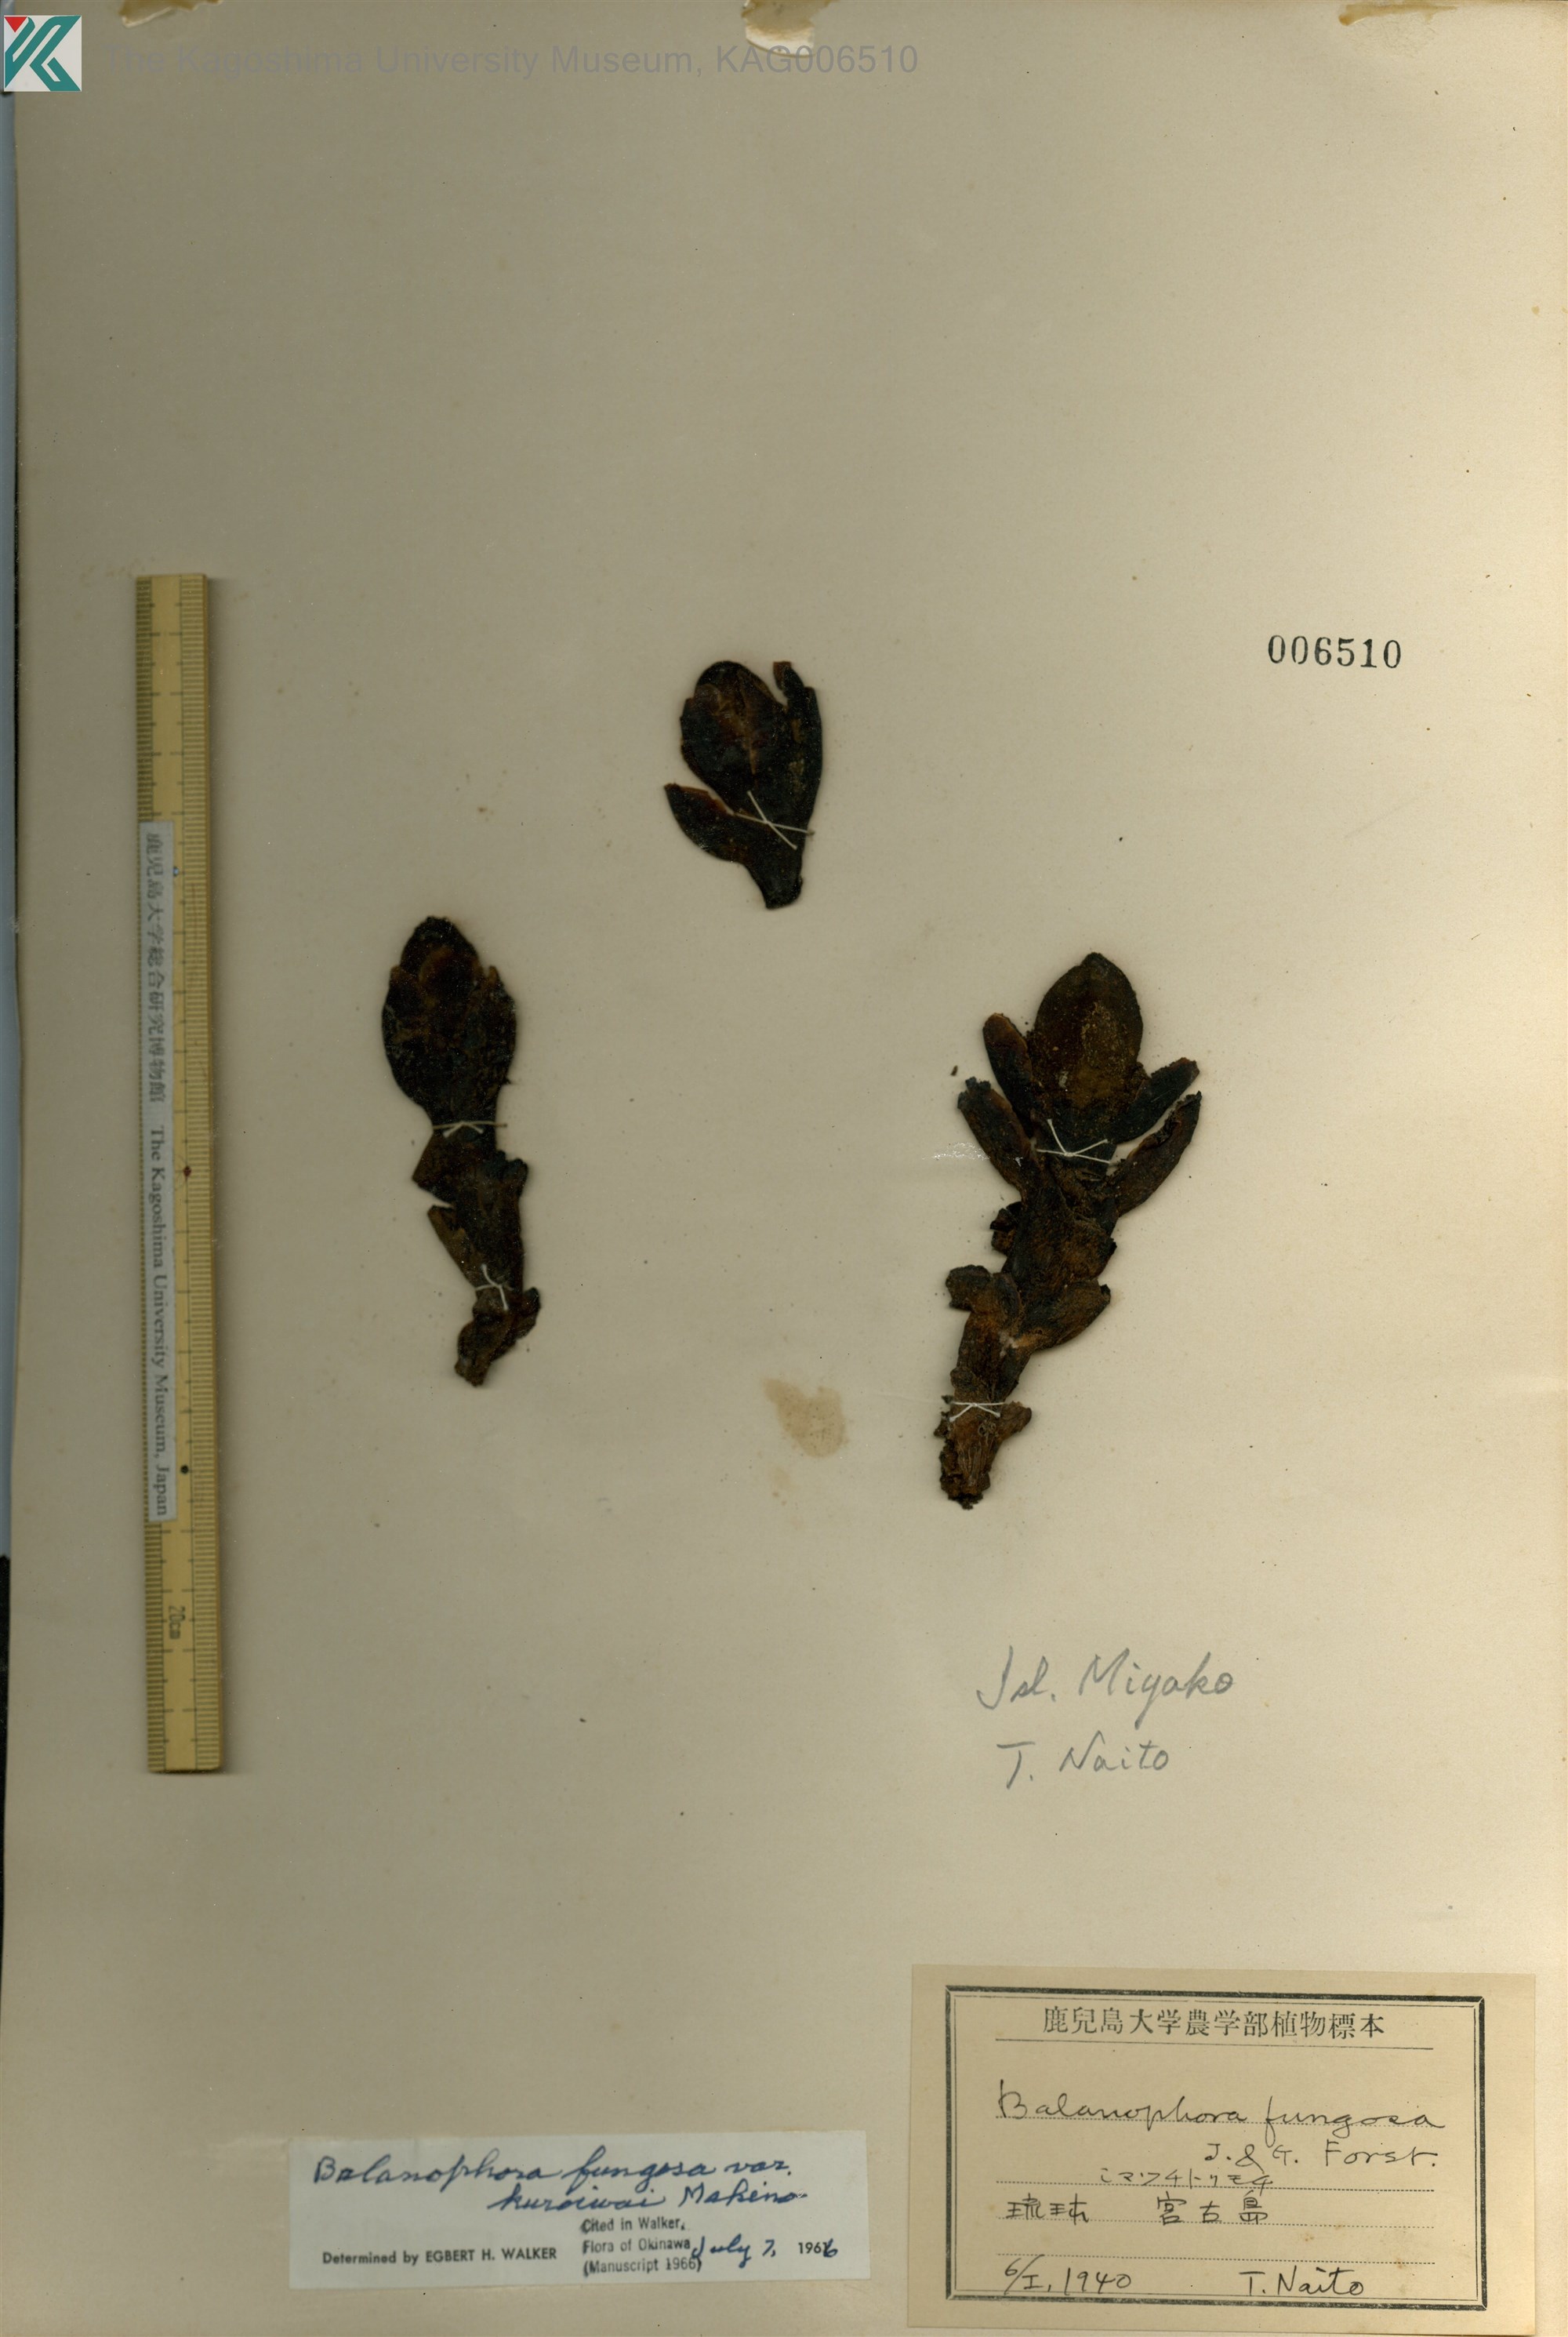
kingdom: Plantae
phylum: Tracheophyta
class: Magnoliopsida
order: Santalales
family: Balanophoraceae
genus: Balanophora
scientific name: Balanophora fungosa
